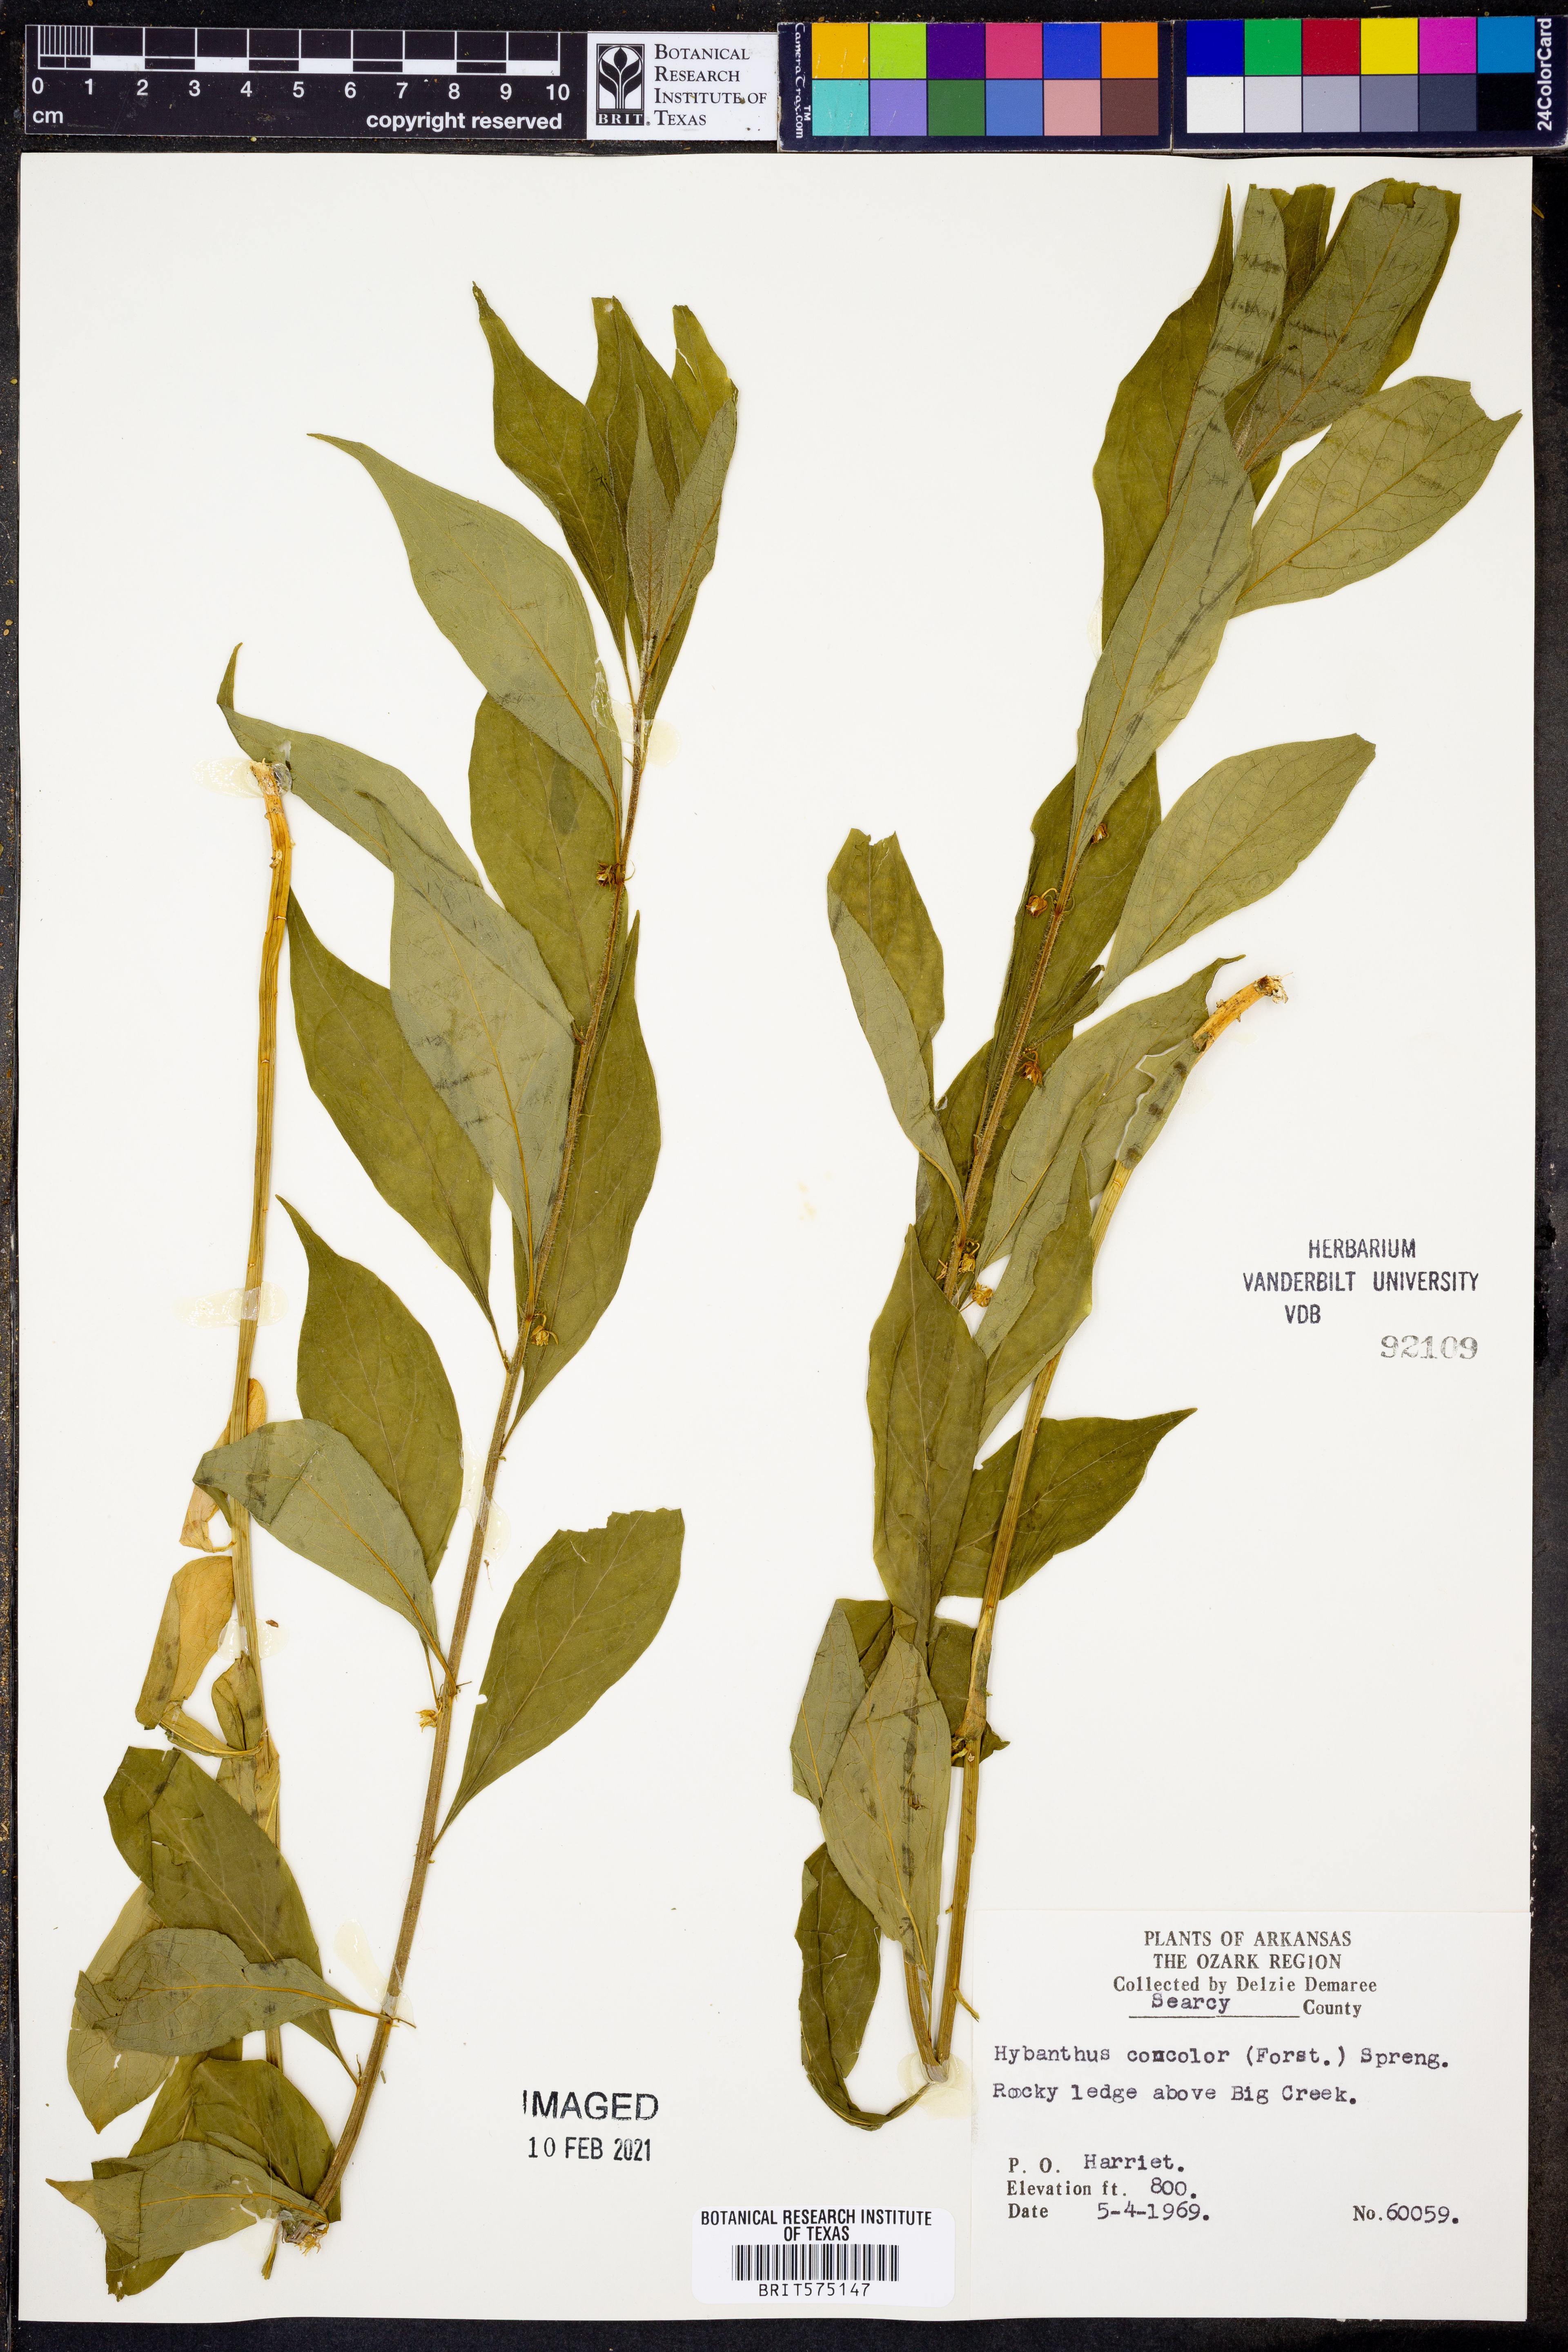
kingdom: Plantae
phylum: Tracheophyta
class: Magnoliopsida
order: Malpighiales
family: Violaceae
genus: Cubelium
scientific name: Cubelium concolor
